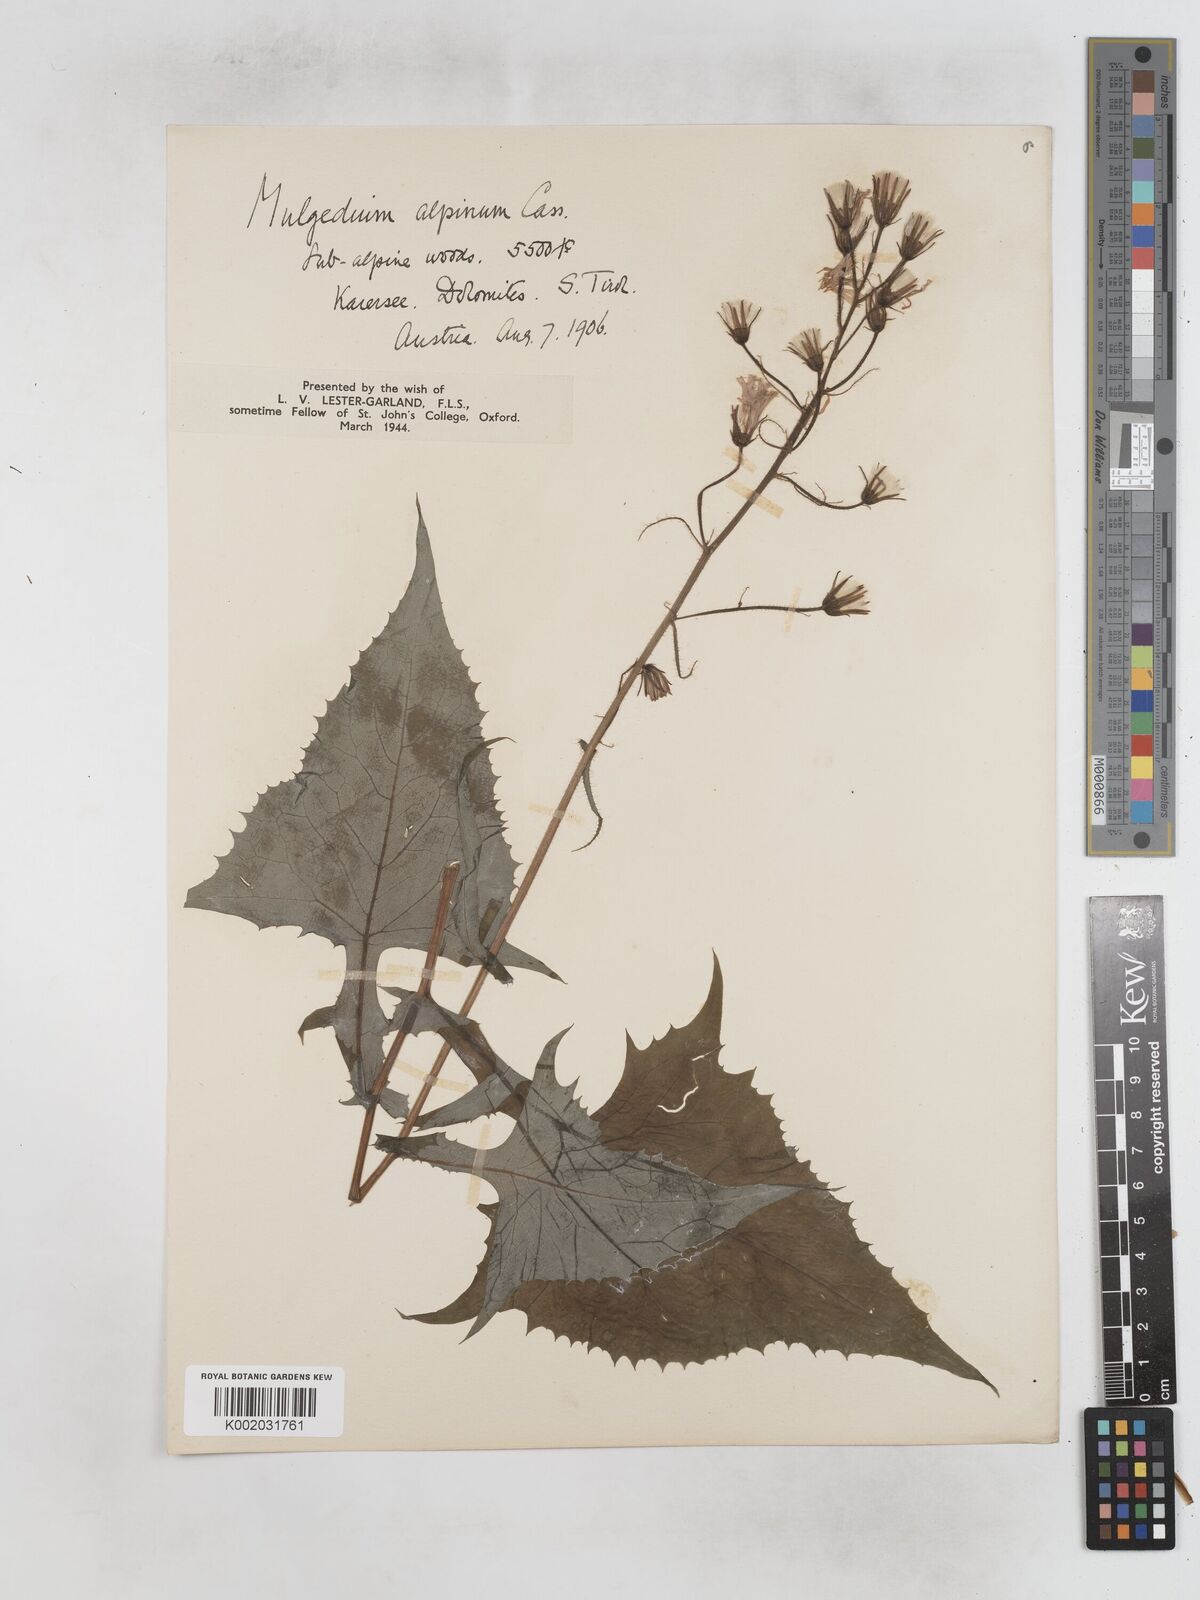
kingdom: Plantae
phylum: Tracheophyta
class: Magnoliopsida
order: Asterales
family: Asteraceae
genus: Cicerbita
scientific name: Cicerbita alpina
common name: Alpine blue-sow-thistle
